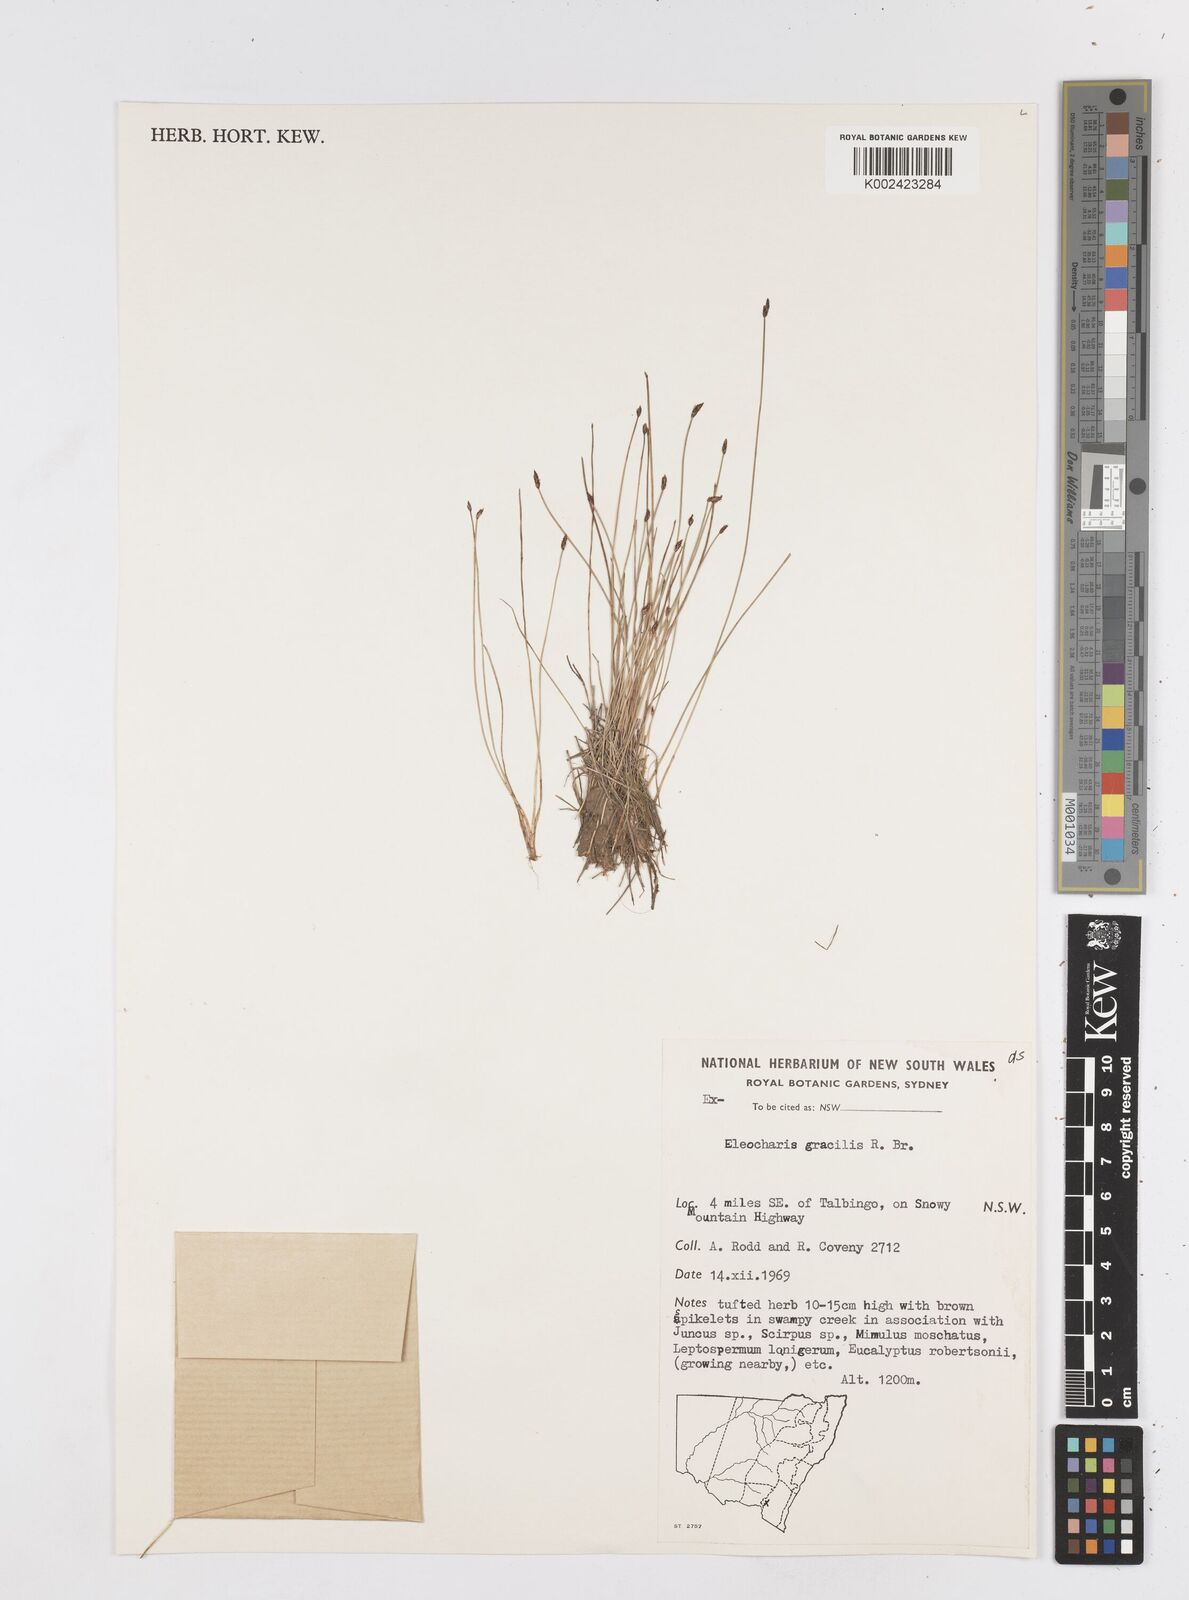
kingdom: Plantae
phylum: Tracheophyta
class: Liliopsida
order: Poales
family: Cyperaceae
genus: Eleocharis
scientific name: Eleocharis multicaulis
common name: Many-stalked spike-rush
